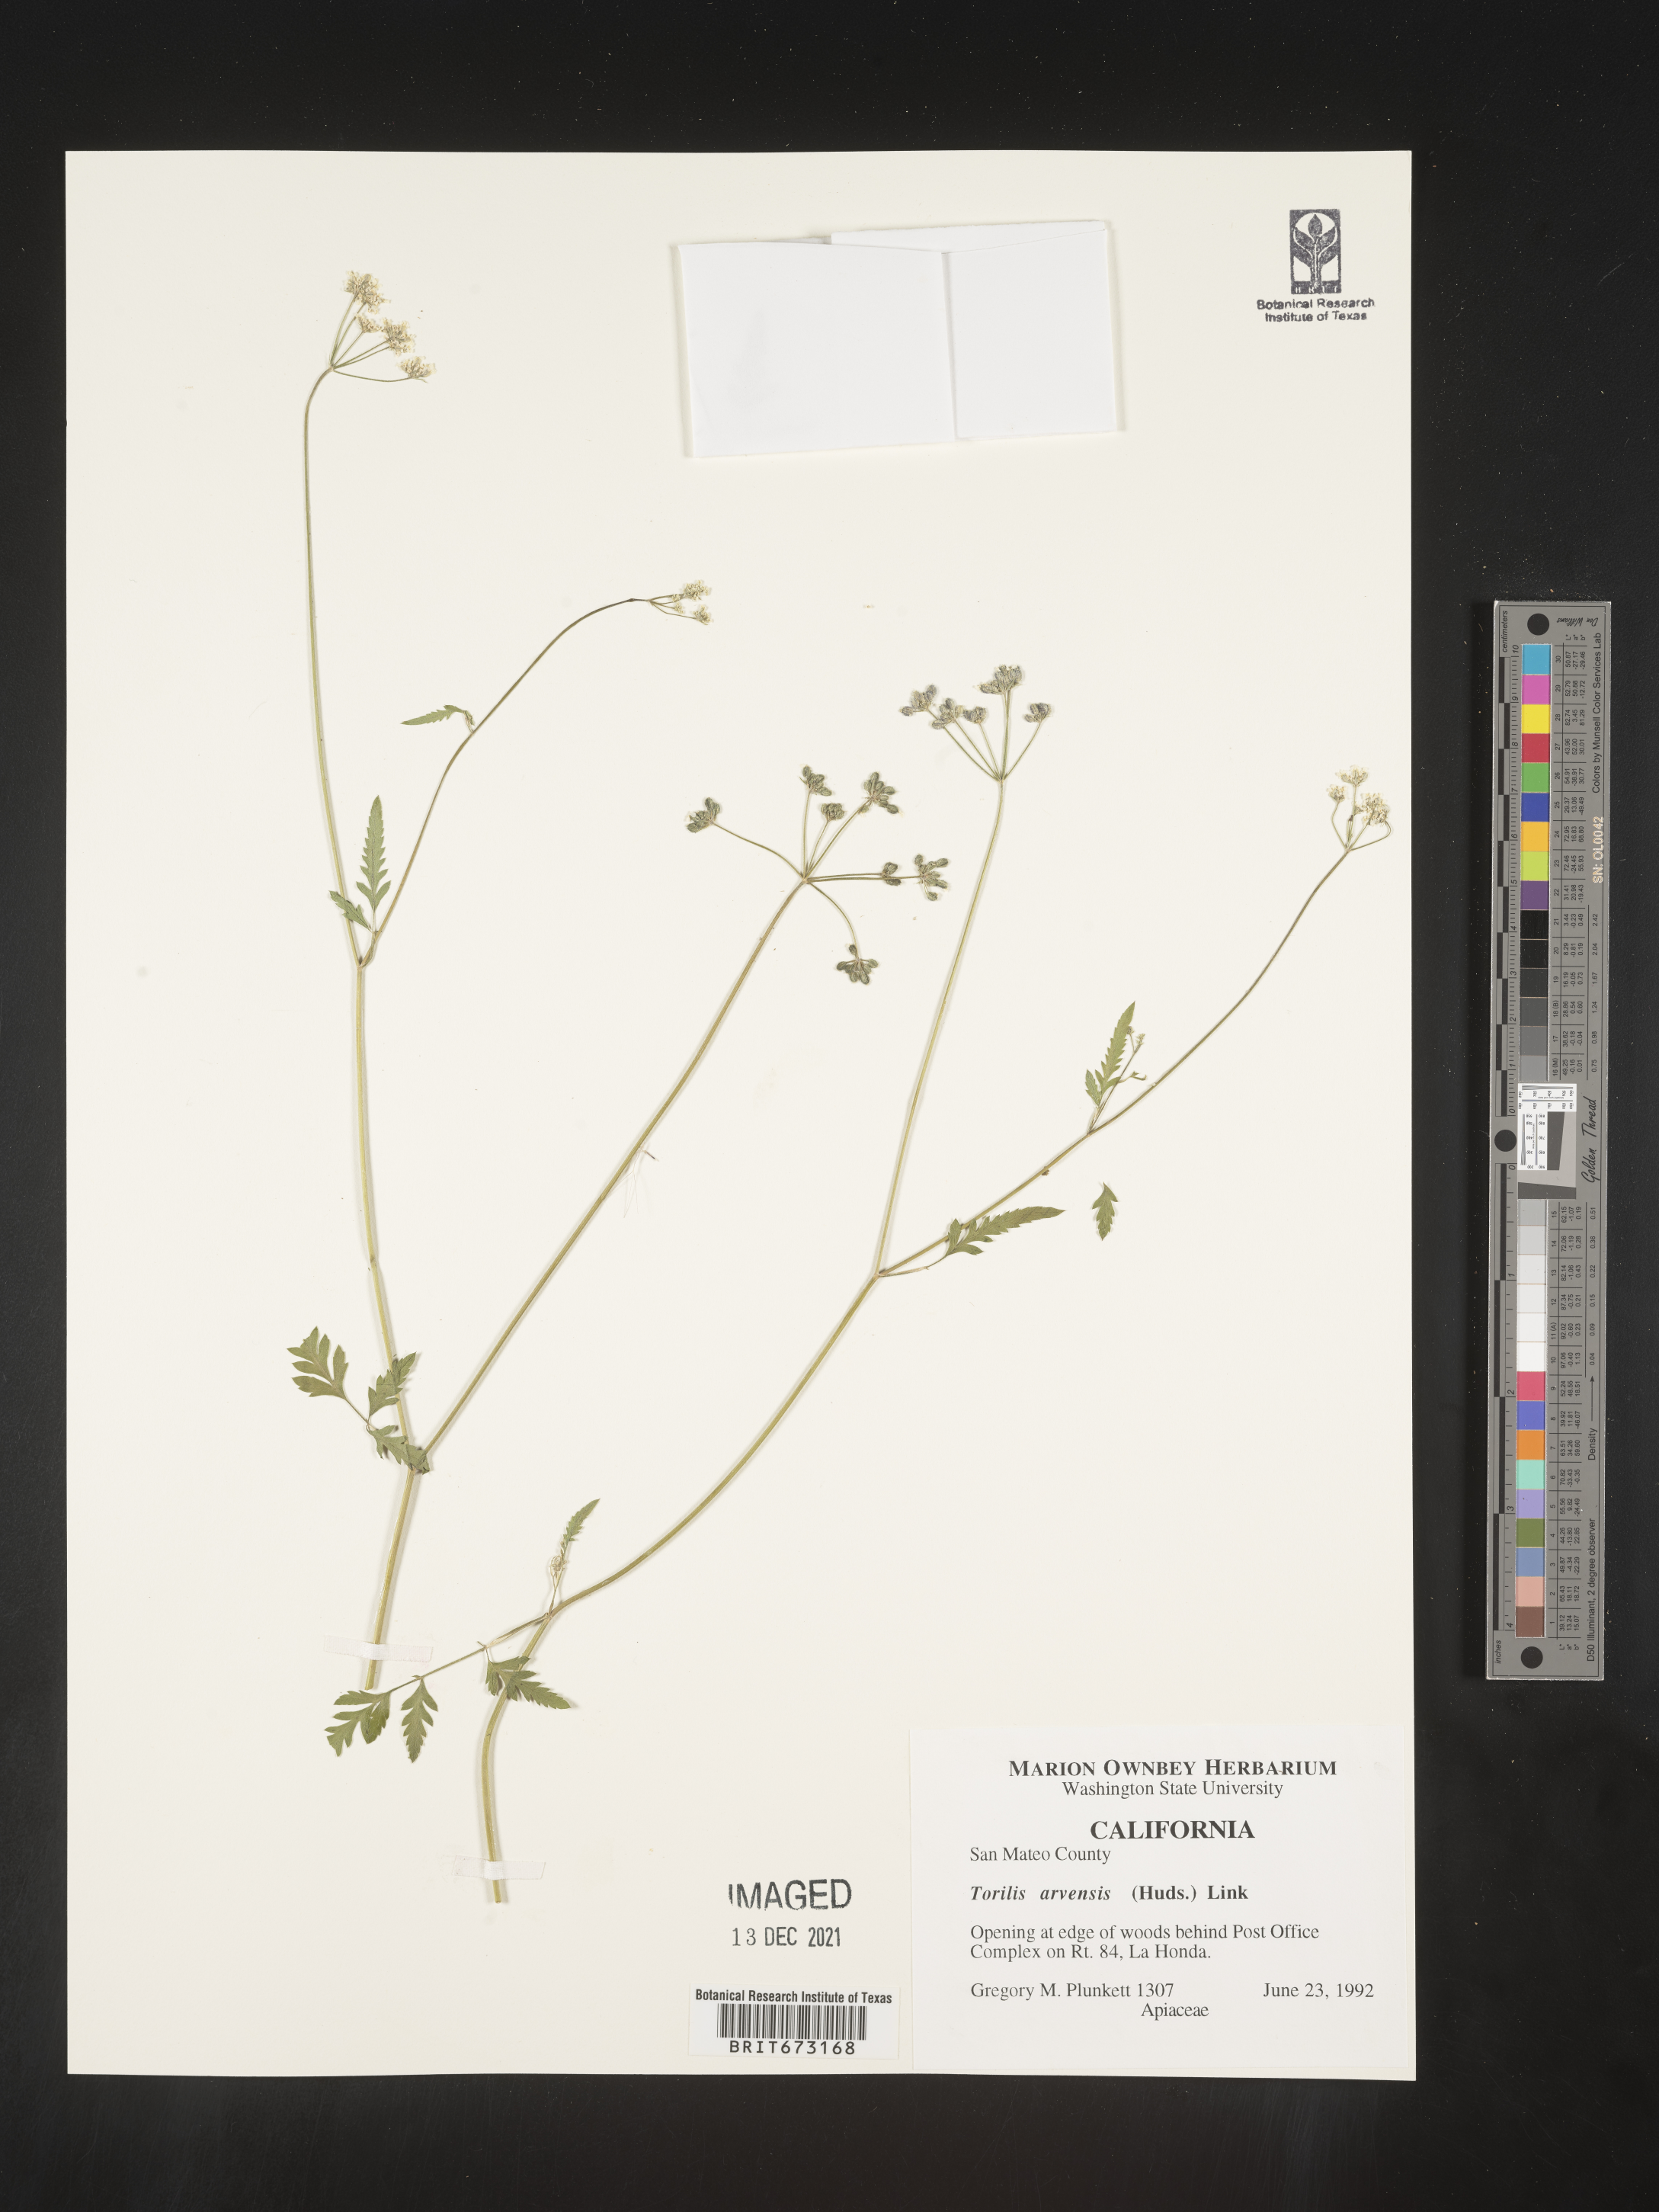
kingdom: Plantae
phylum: Tracheophyta
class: Magnoliopsida
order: Apiales
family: Apiaceae
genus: Torilis
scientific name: Torilis arvensis
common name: Spreading hedge-parsley
